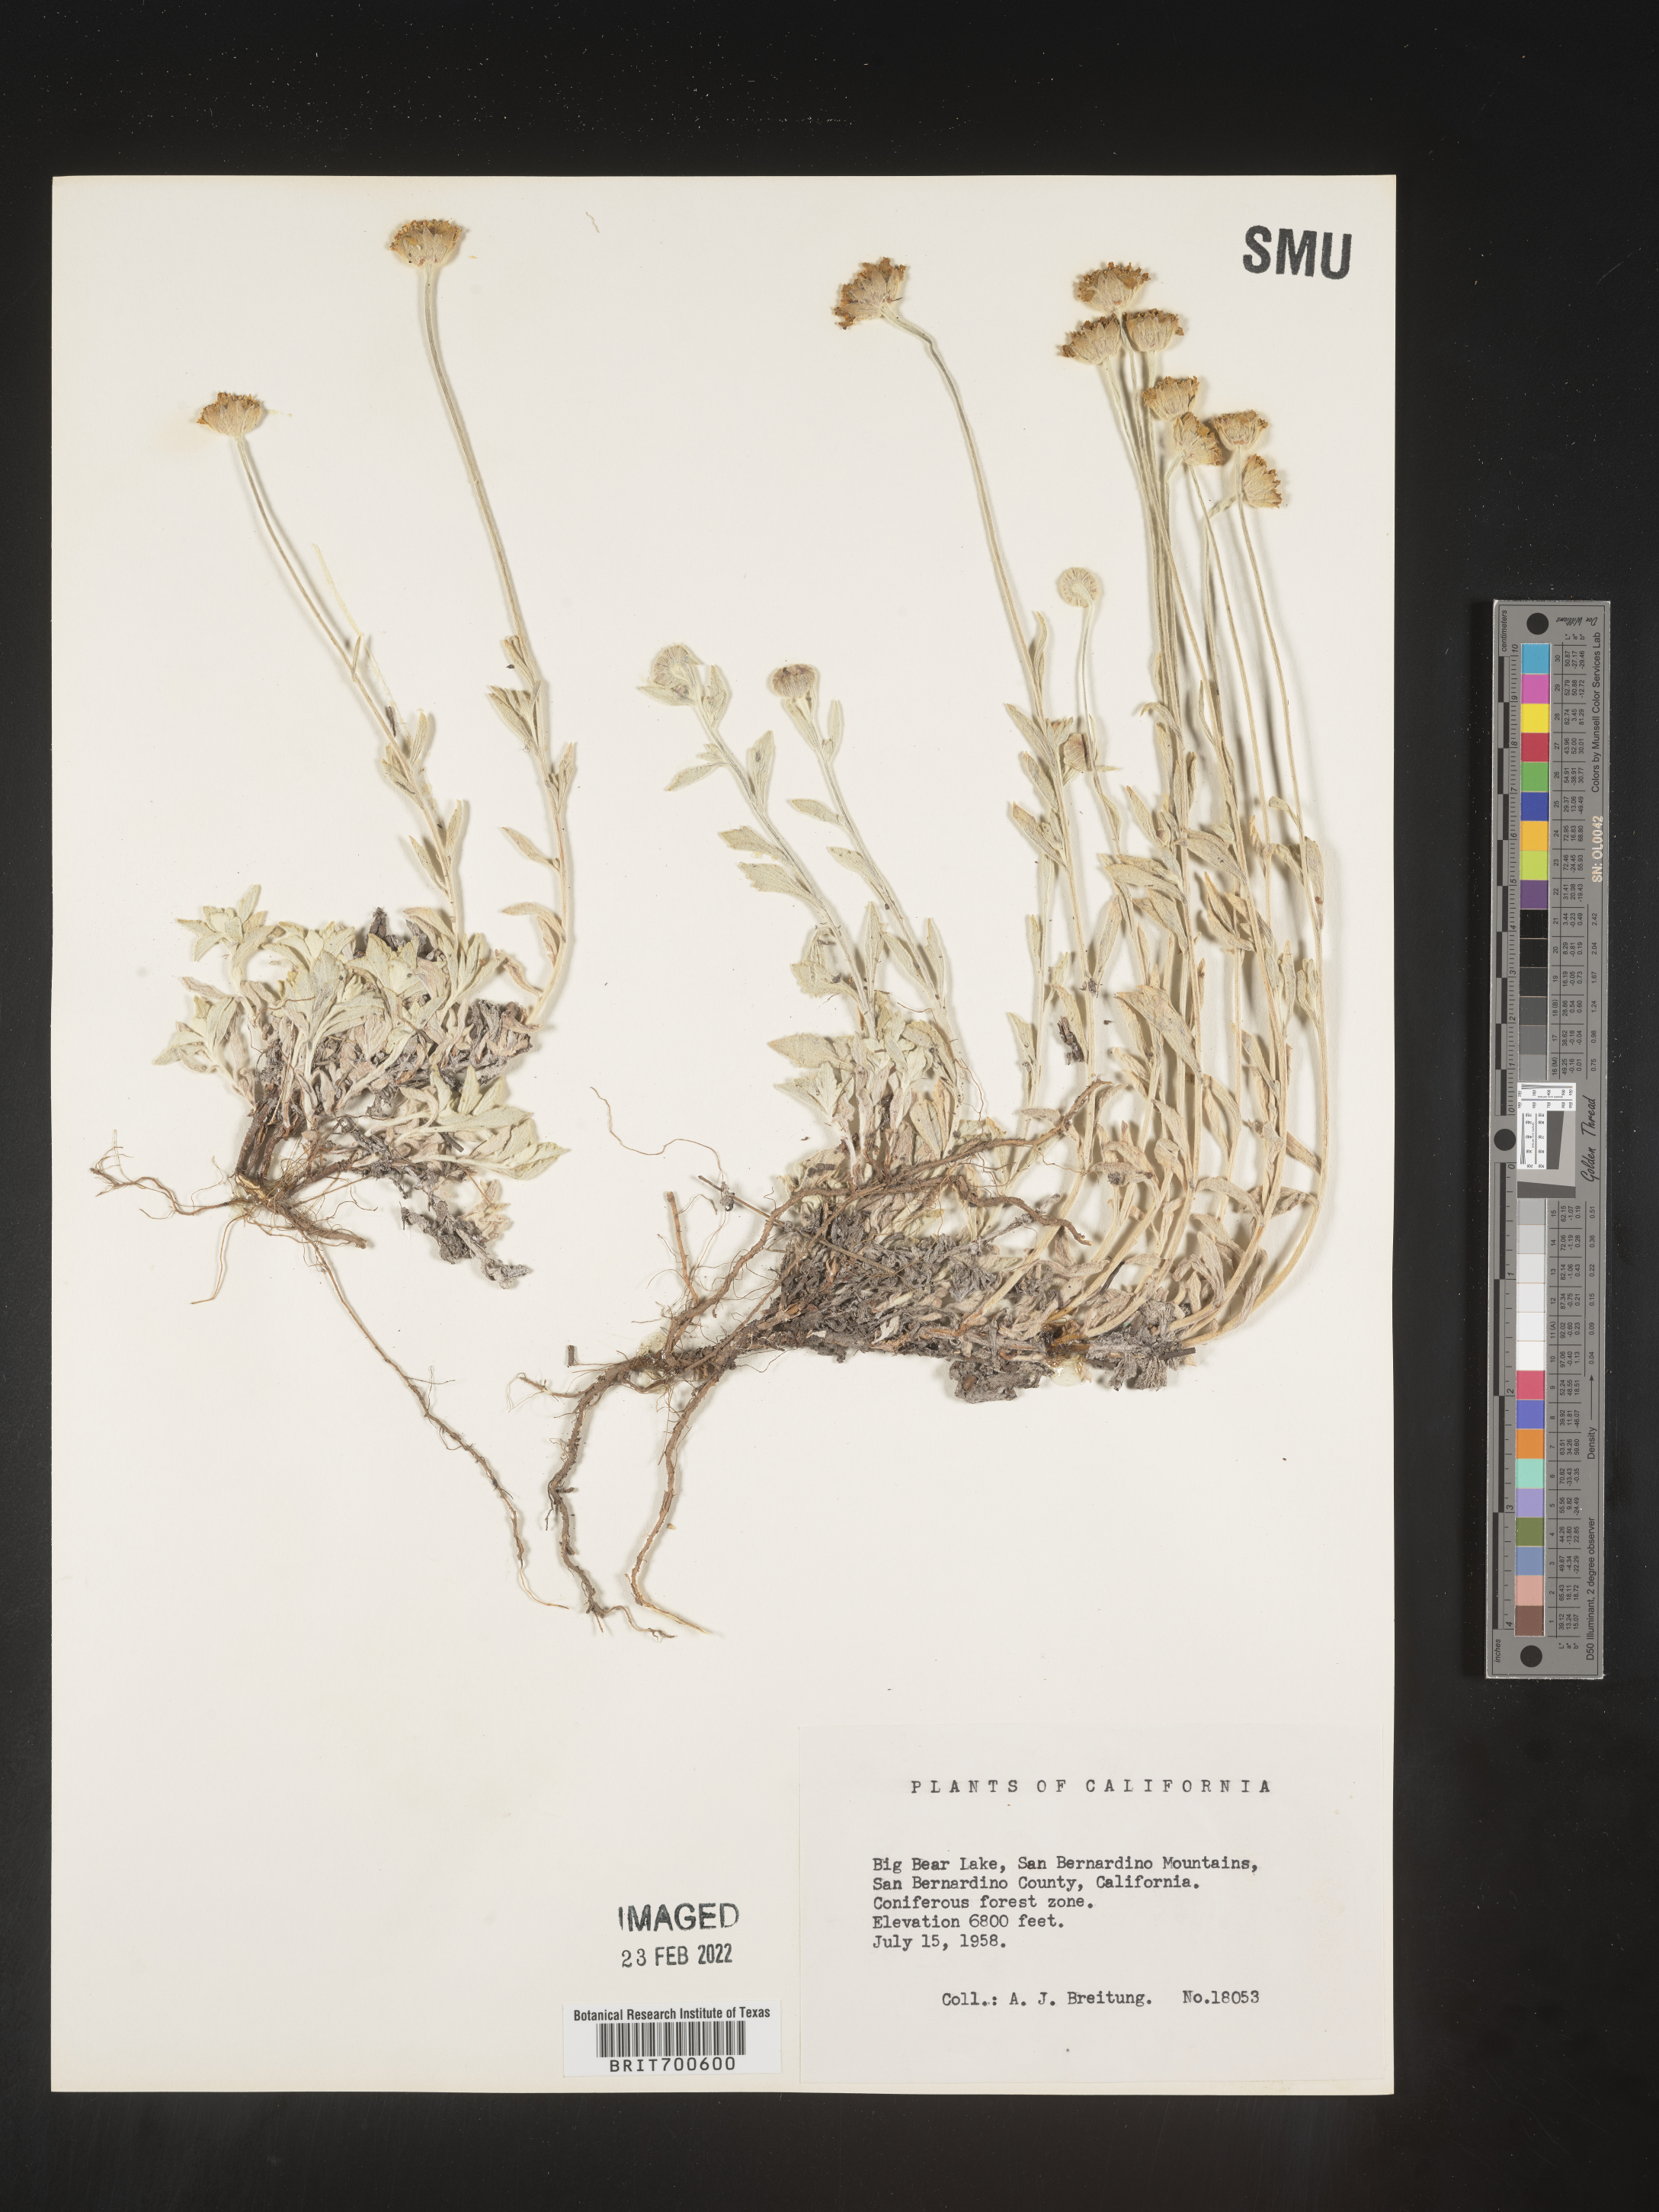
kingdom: Plantae
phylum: Tracheophyta
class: Magnoliopsida
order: Asterales
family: Asteraceae
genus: Eriophyllum
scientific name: Eriophyllum
